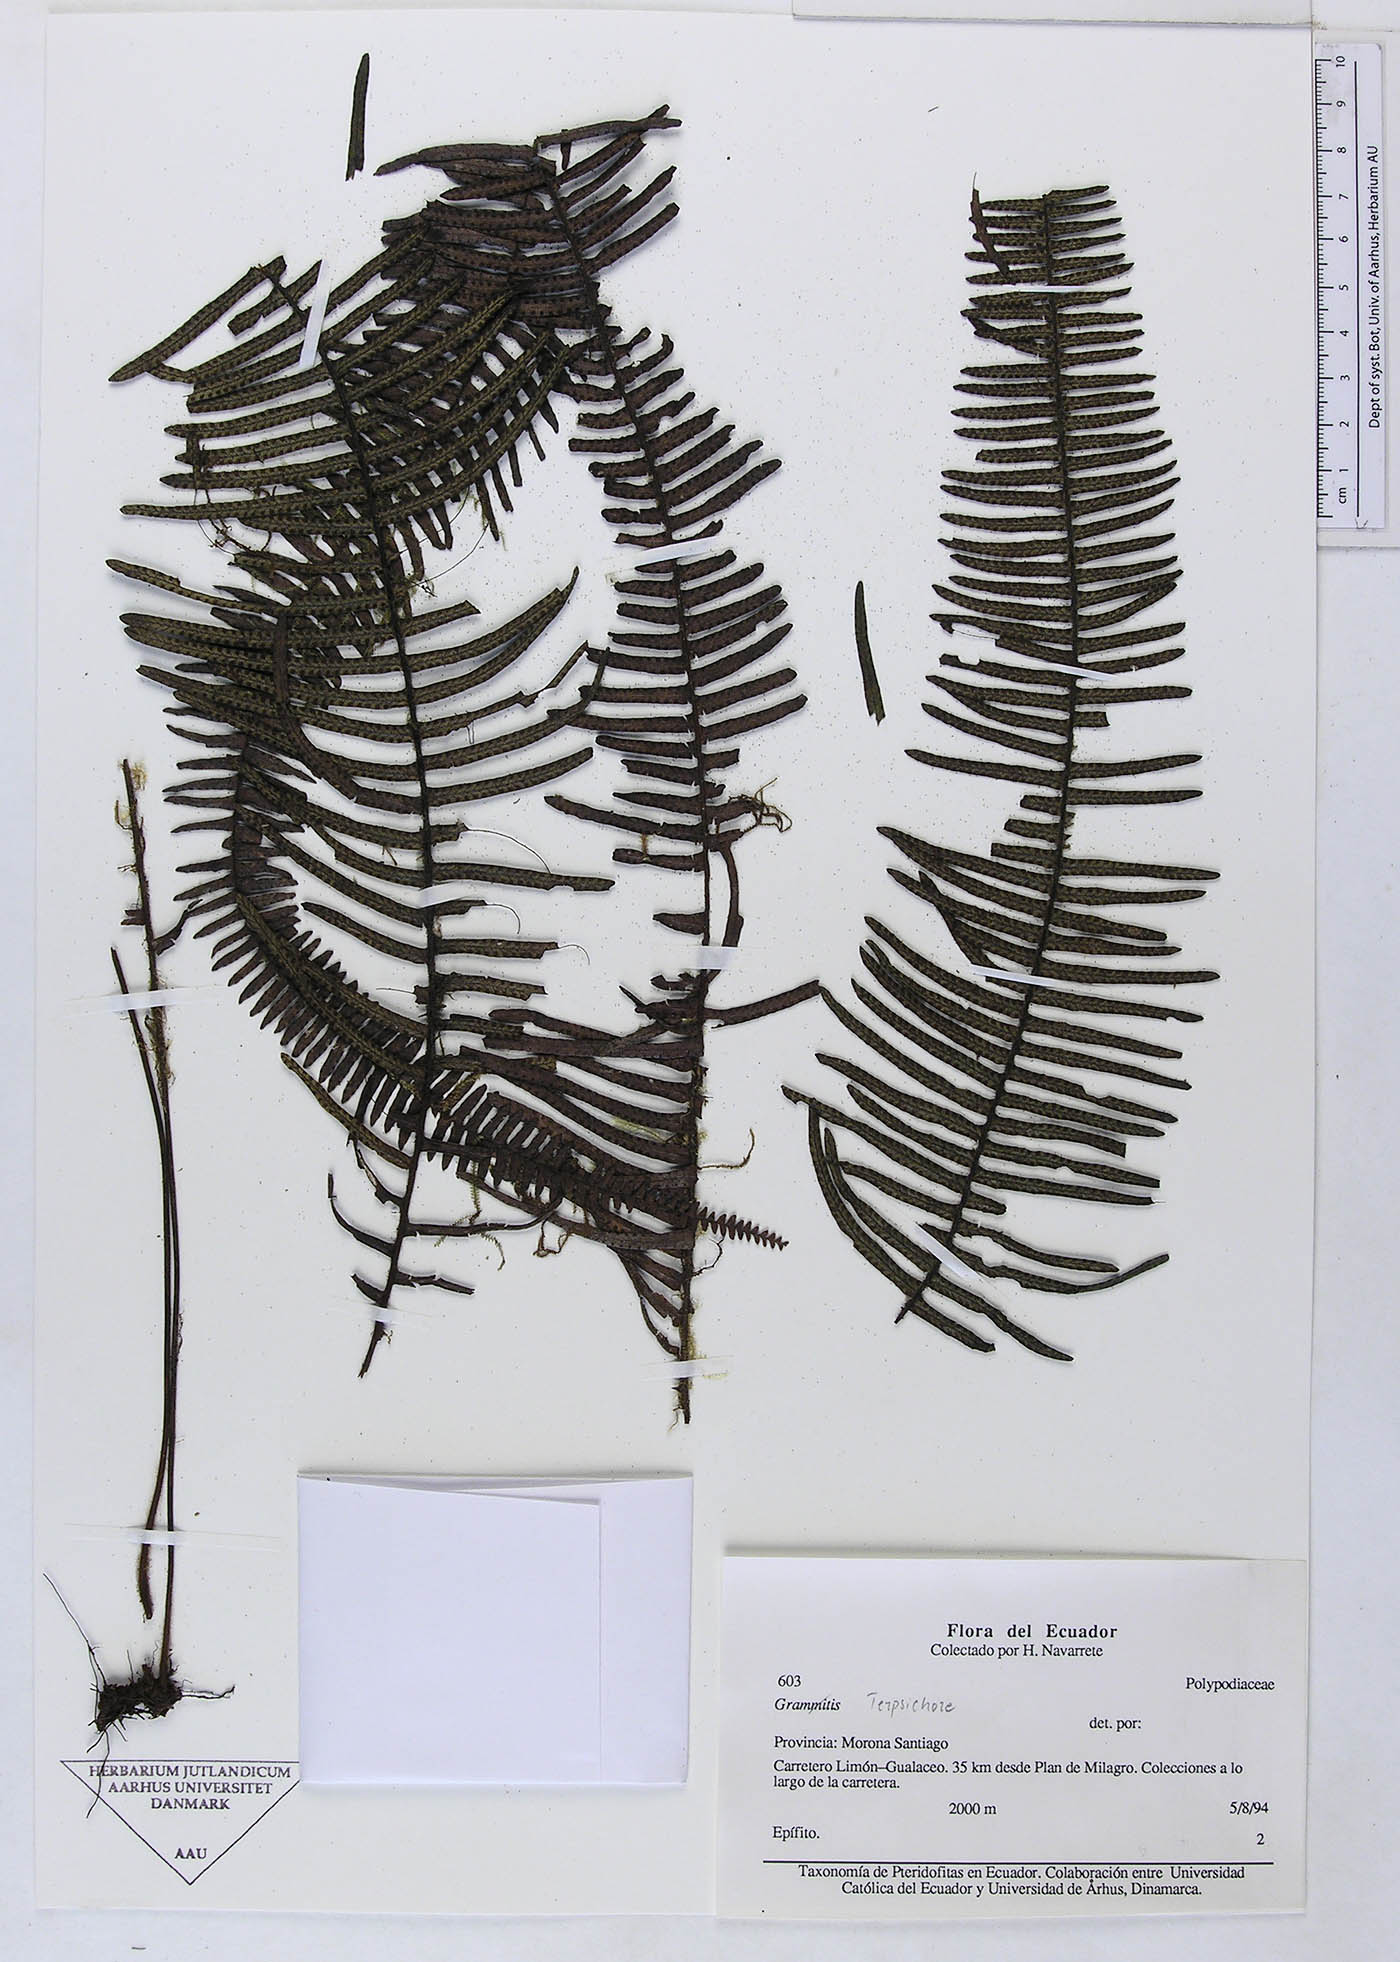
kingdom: Plantae
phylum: Tracheophyta
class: Polypodiopsida
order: Polypodiales
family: Polypodiaceae
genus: Grammitis
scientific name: Grammitis
